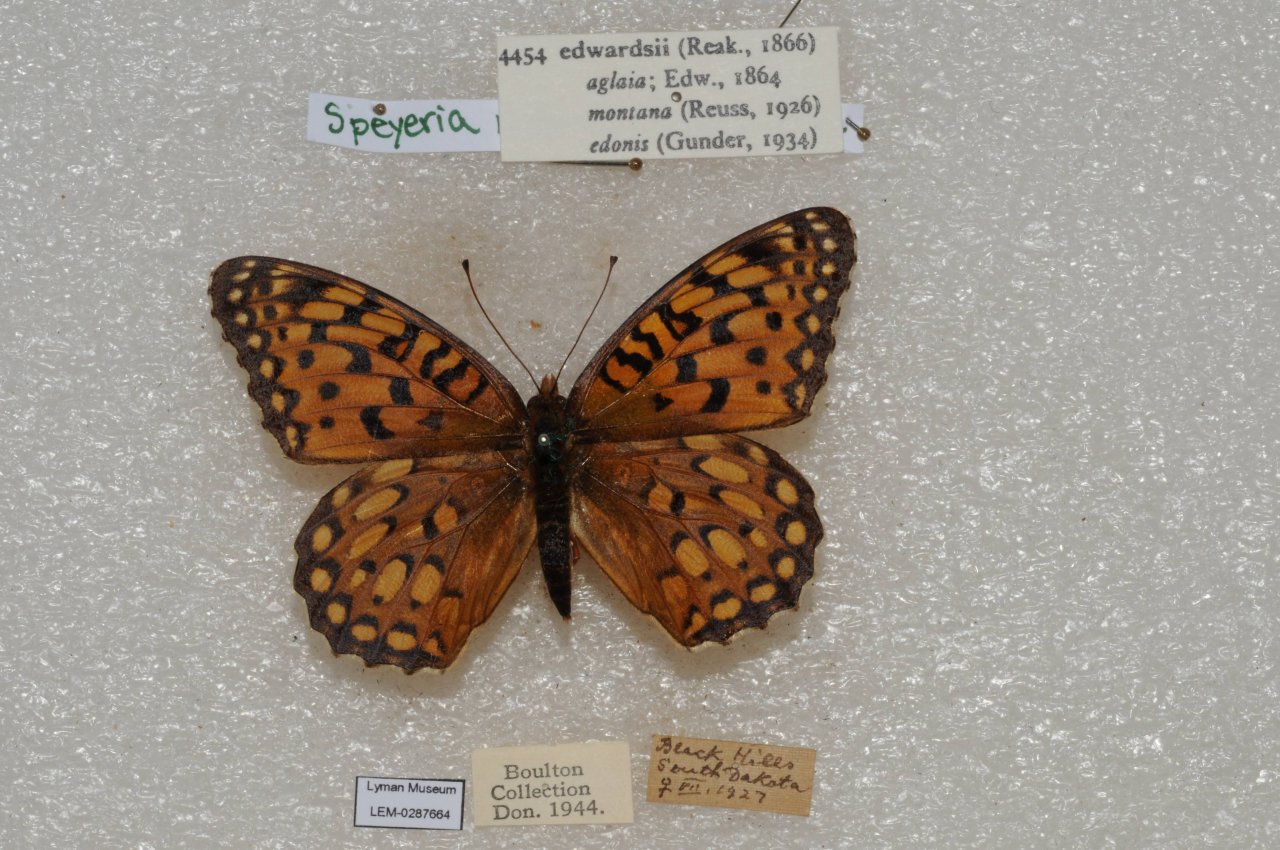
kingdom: Animalia
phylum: Arthropoda
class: Insecta
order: Lepidoptera
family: Nymphalidae
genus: Speyeria
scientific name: Speyeria edwardsii
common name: Edwards' Fritillary
